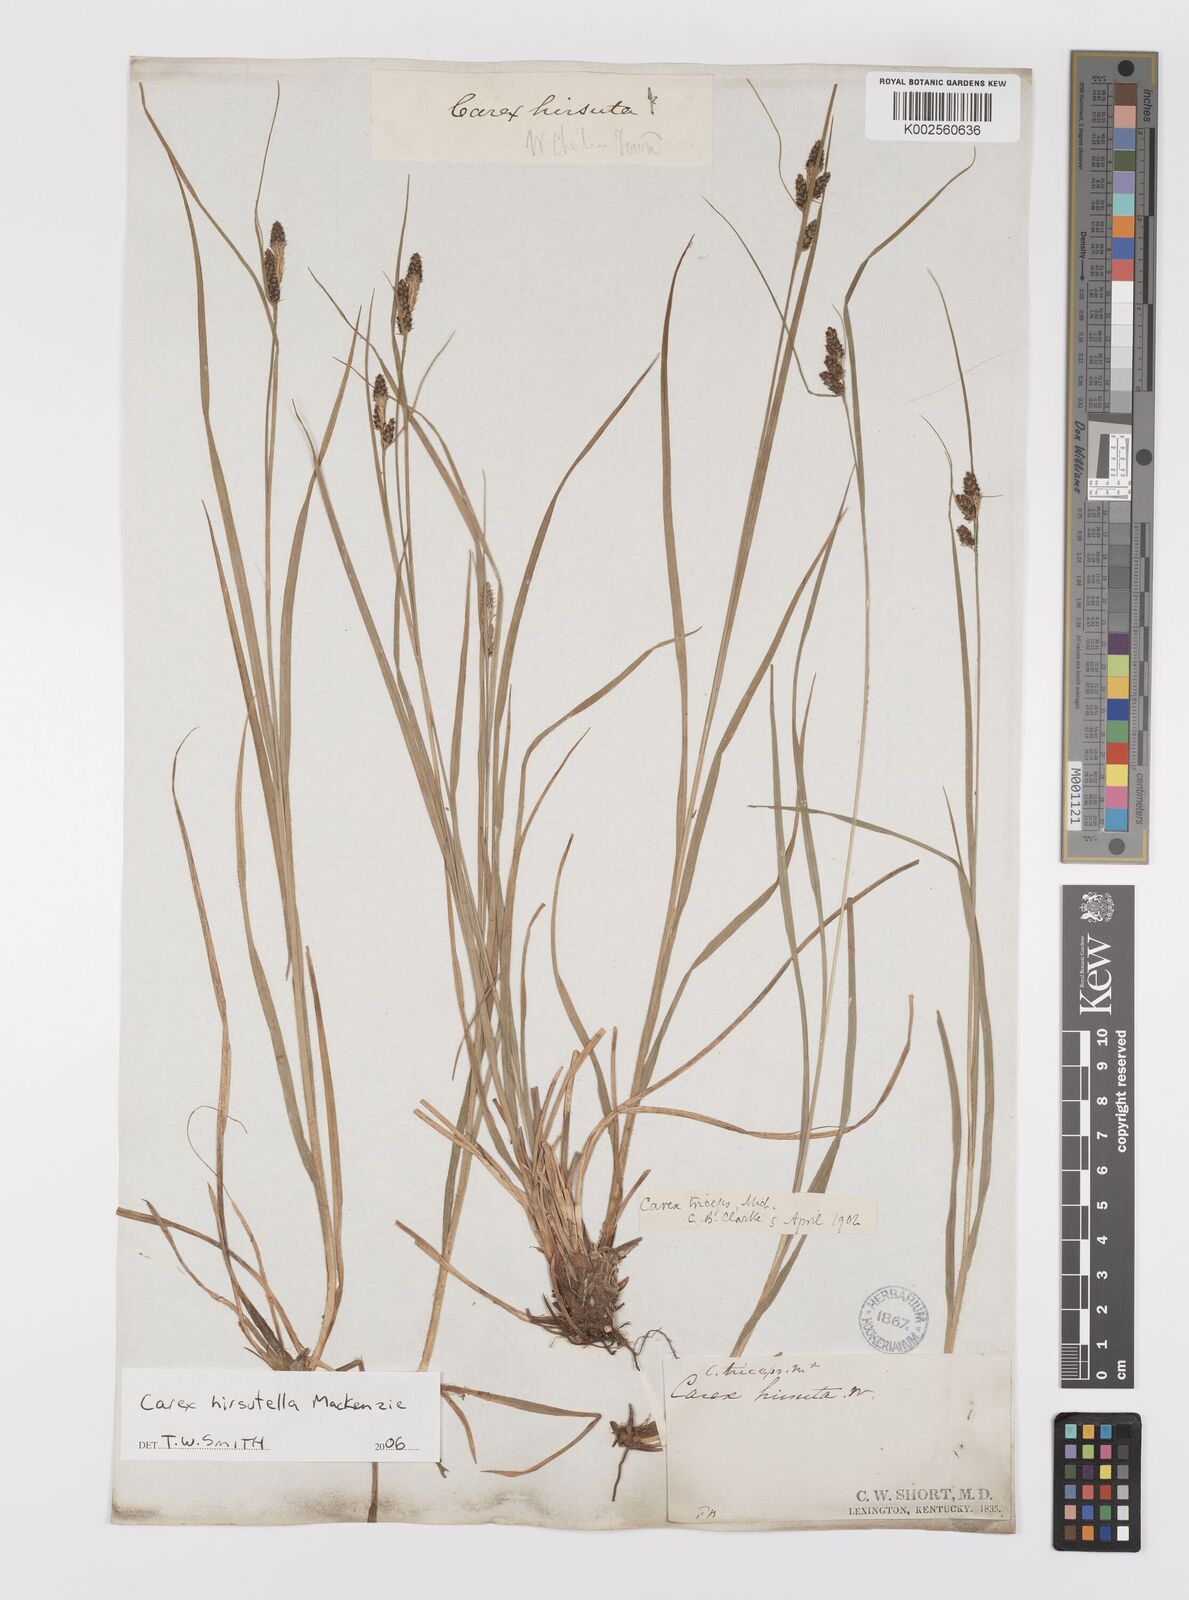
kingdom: Plantae
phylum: Tracheophyta
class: Liliopsida
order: Poales
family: Cyperaceae
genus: Carex
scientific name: Carex hirsutella
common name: Fuzzy wuzzy sedge
